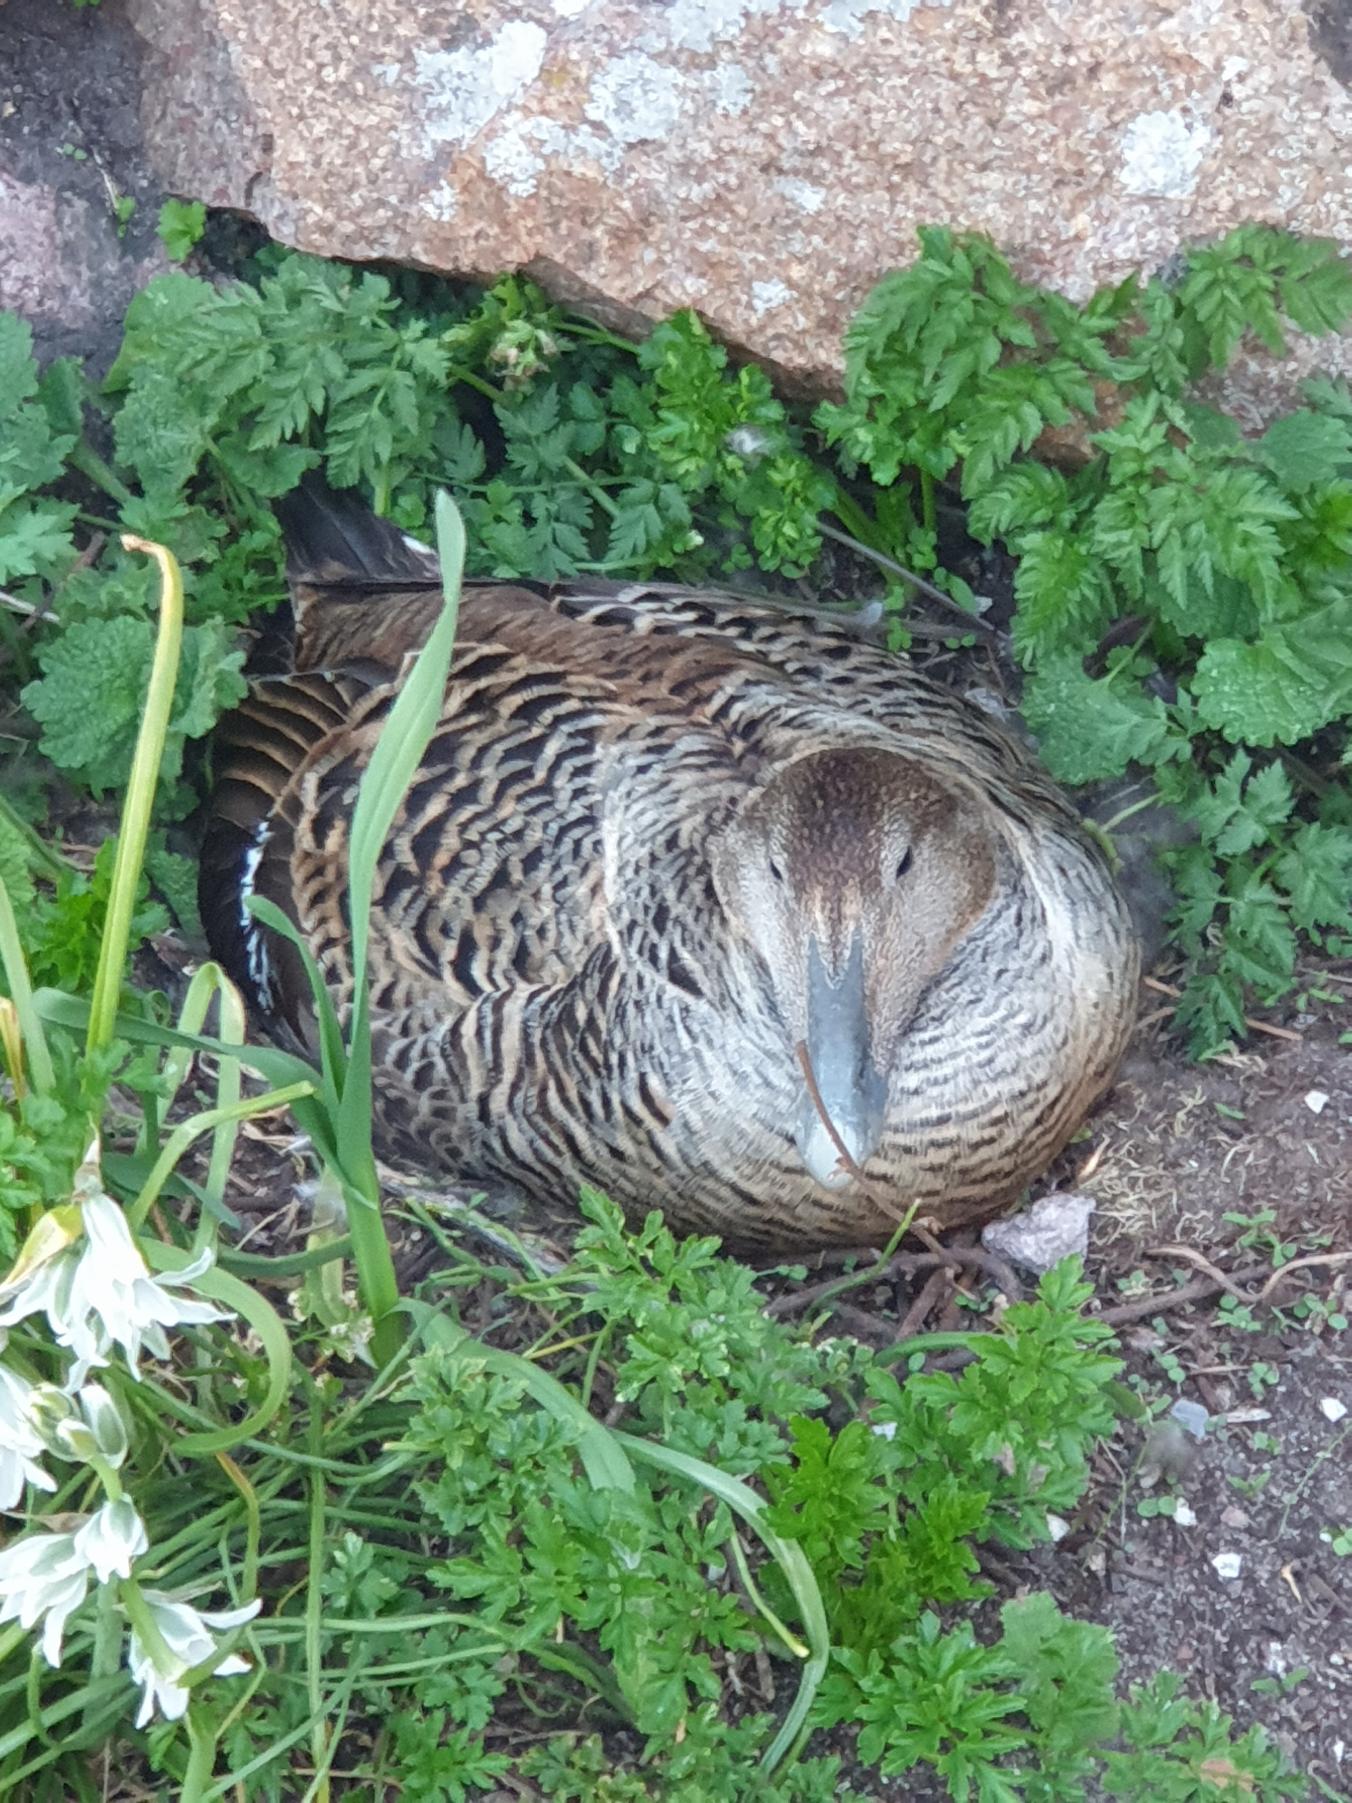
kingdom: Animalia
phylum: Chordata
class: Aves
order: Anseriformes
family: Anatidae
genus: Somateria
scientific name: Somateria mollissima
